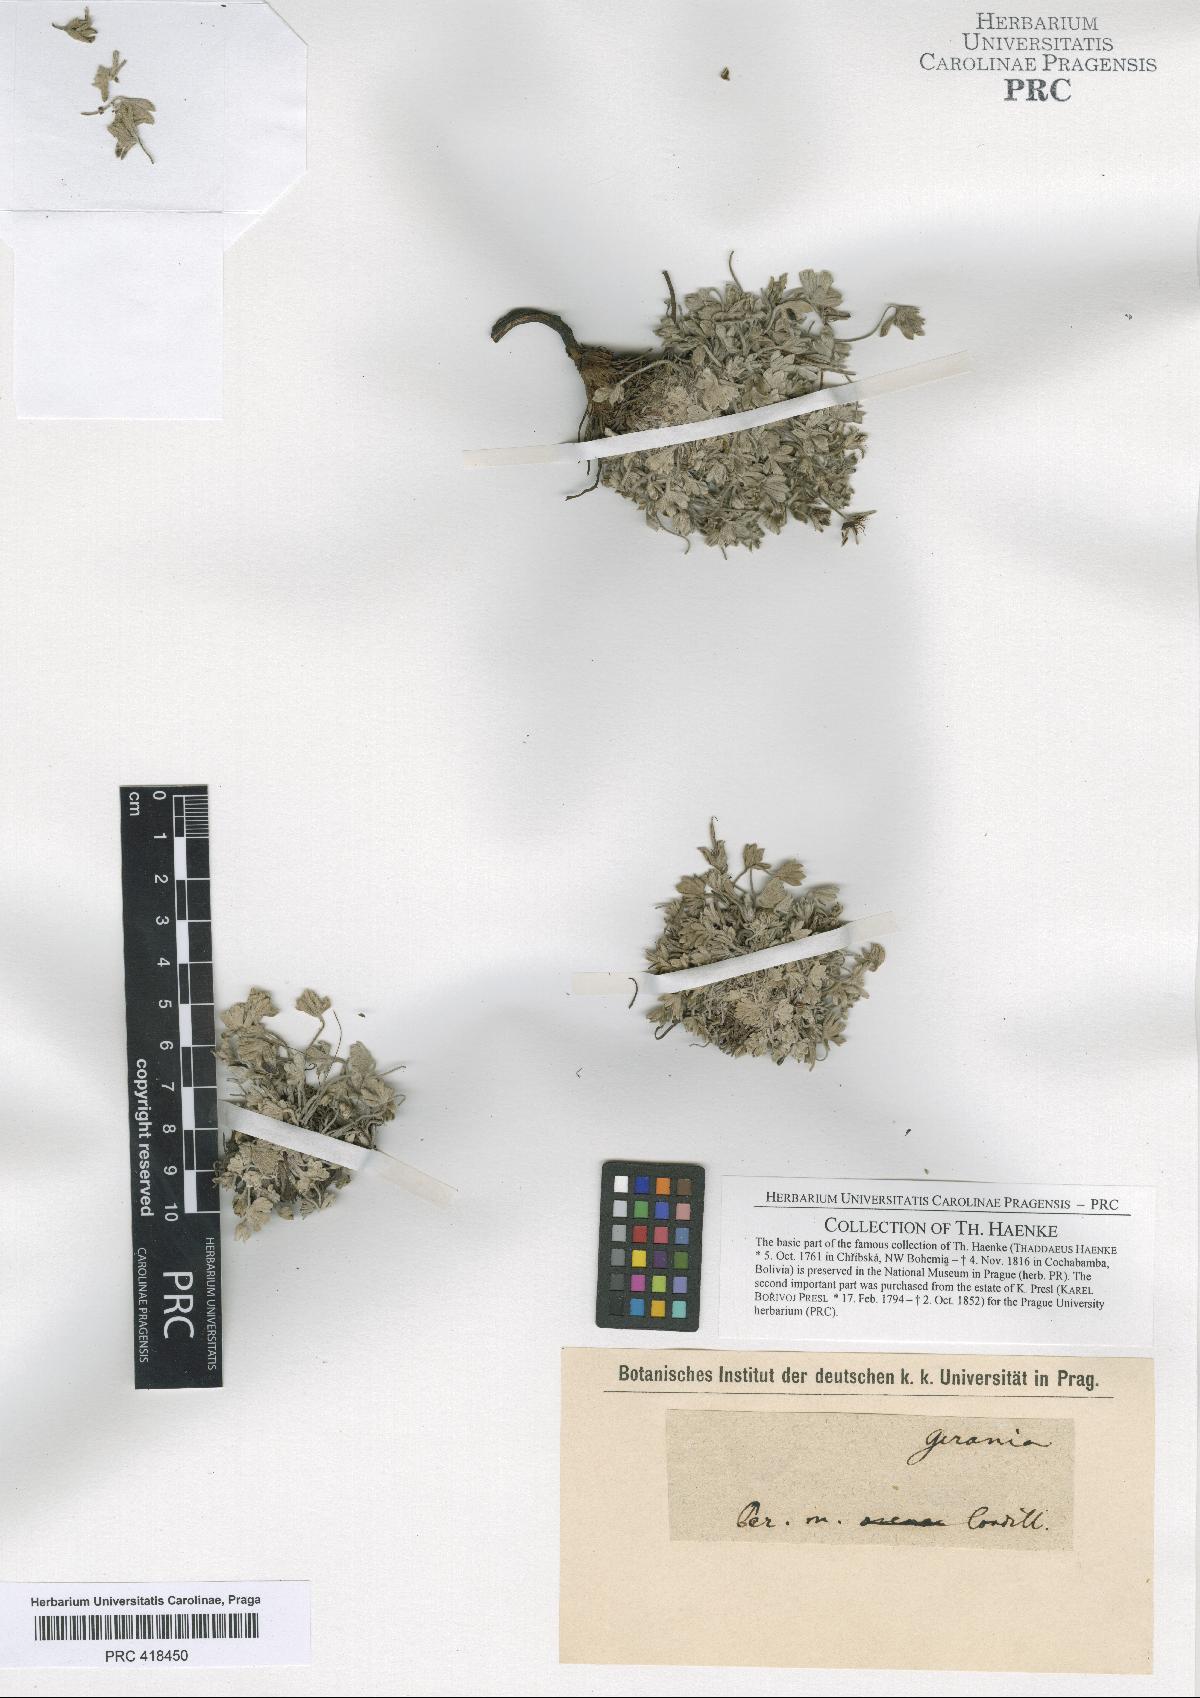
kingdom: Plantae
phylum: Tracheophyta
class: Magnoliopsida
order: Geraniales
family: Geraniaceae
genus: Geranium
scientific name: Geranium crassipes
